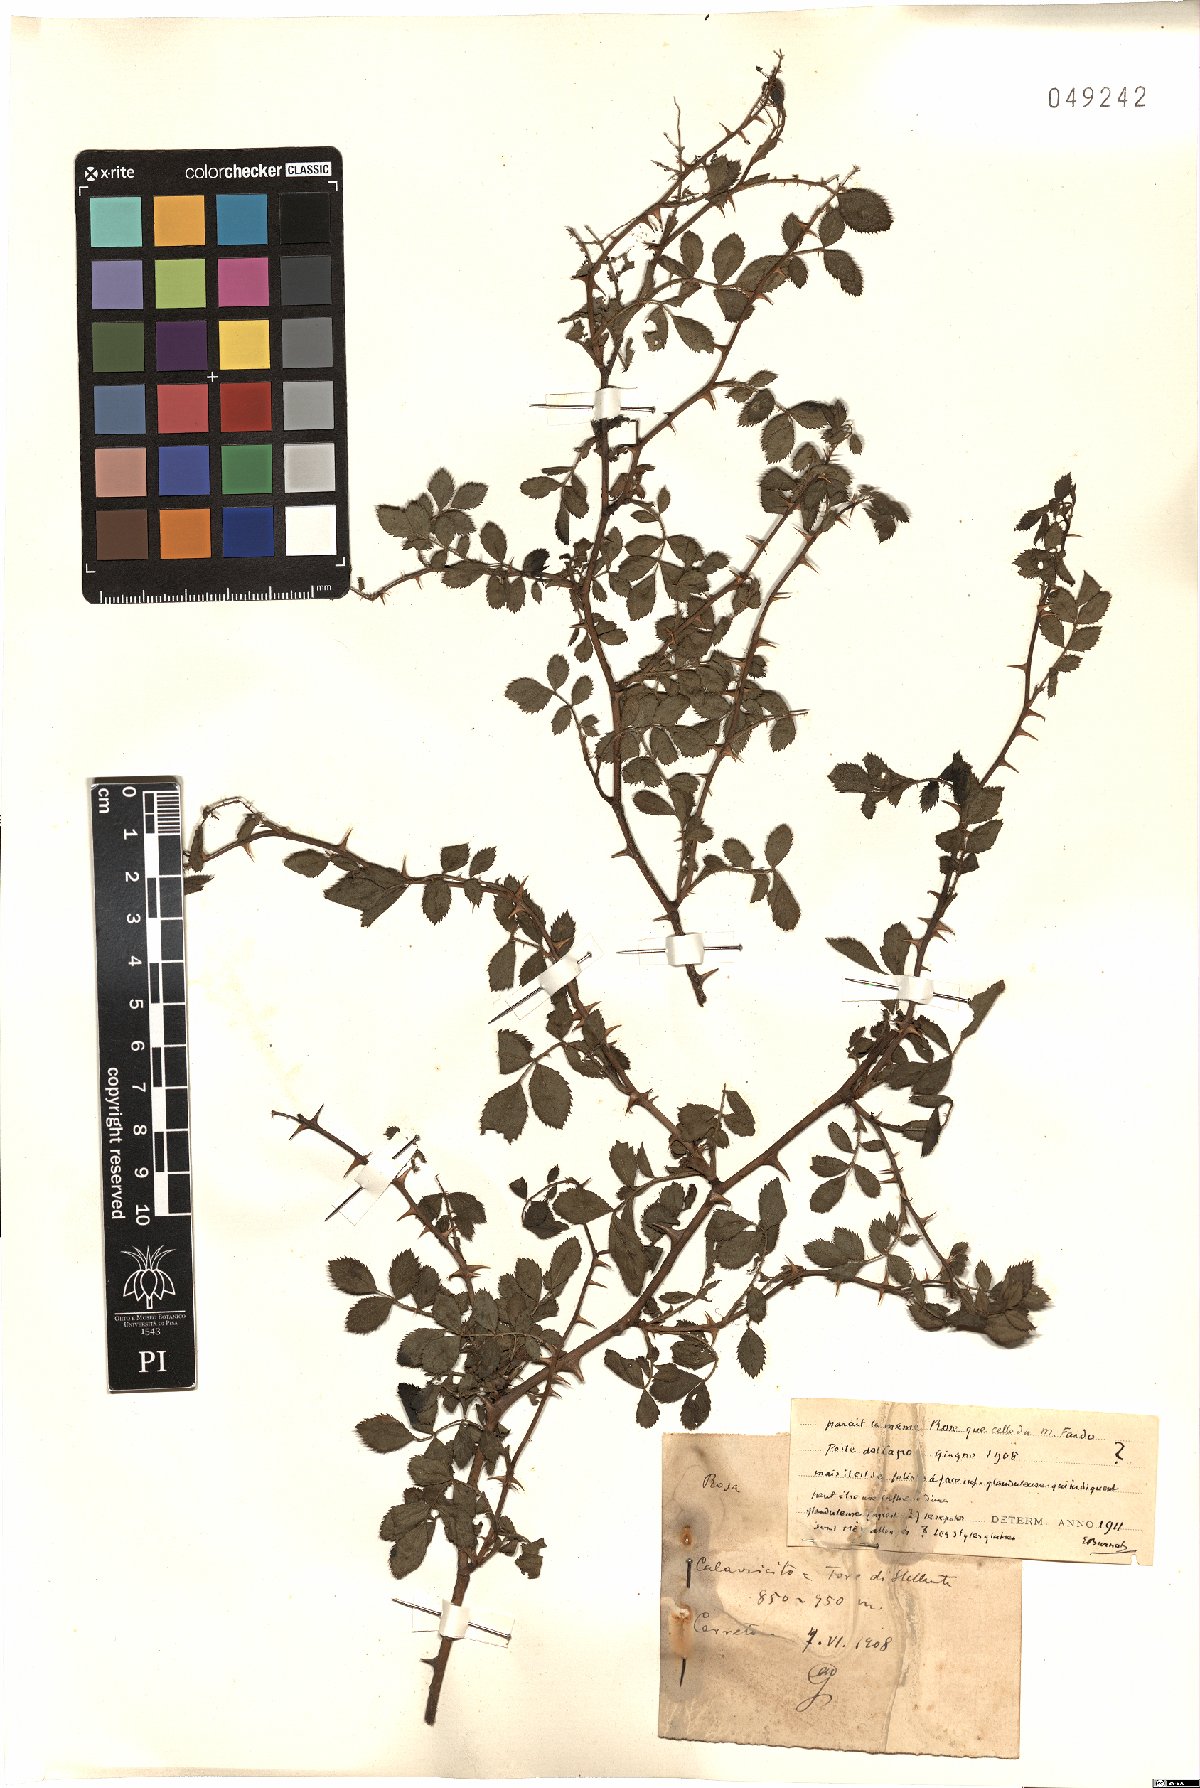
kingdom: Plantae
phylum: Tracheophyta
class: Magnoliopsida
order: Rosales
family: Rosaceae
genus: Rosa
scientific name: Rosa
